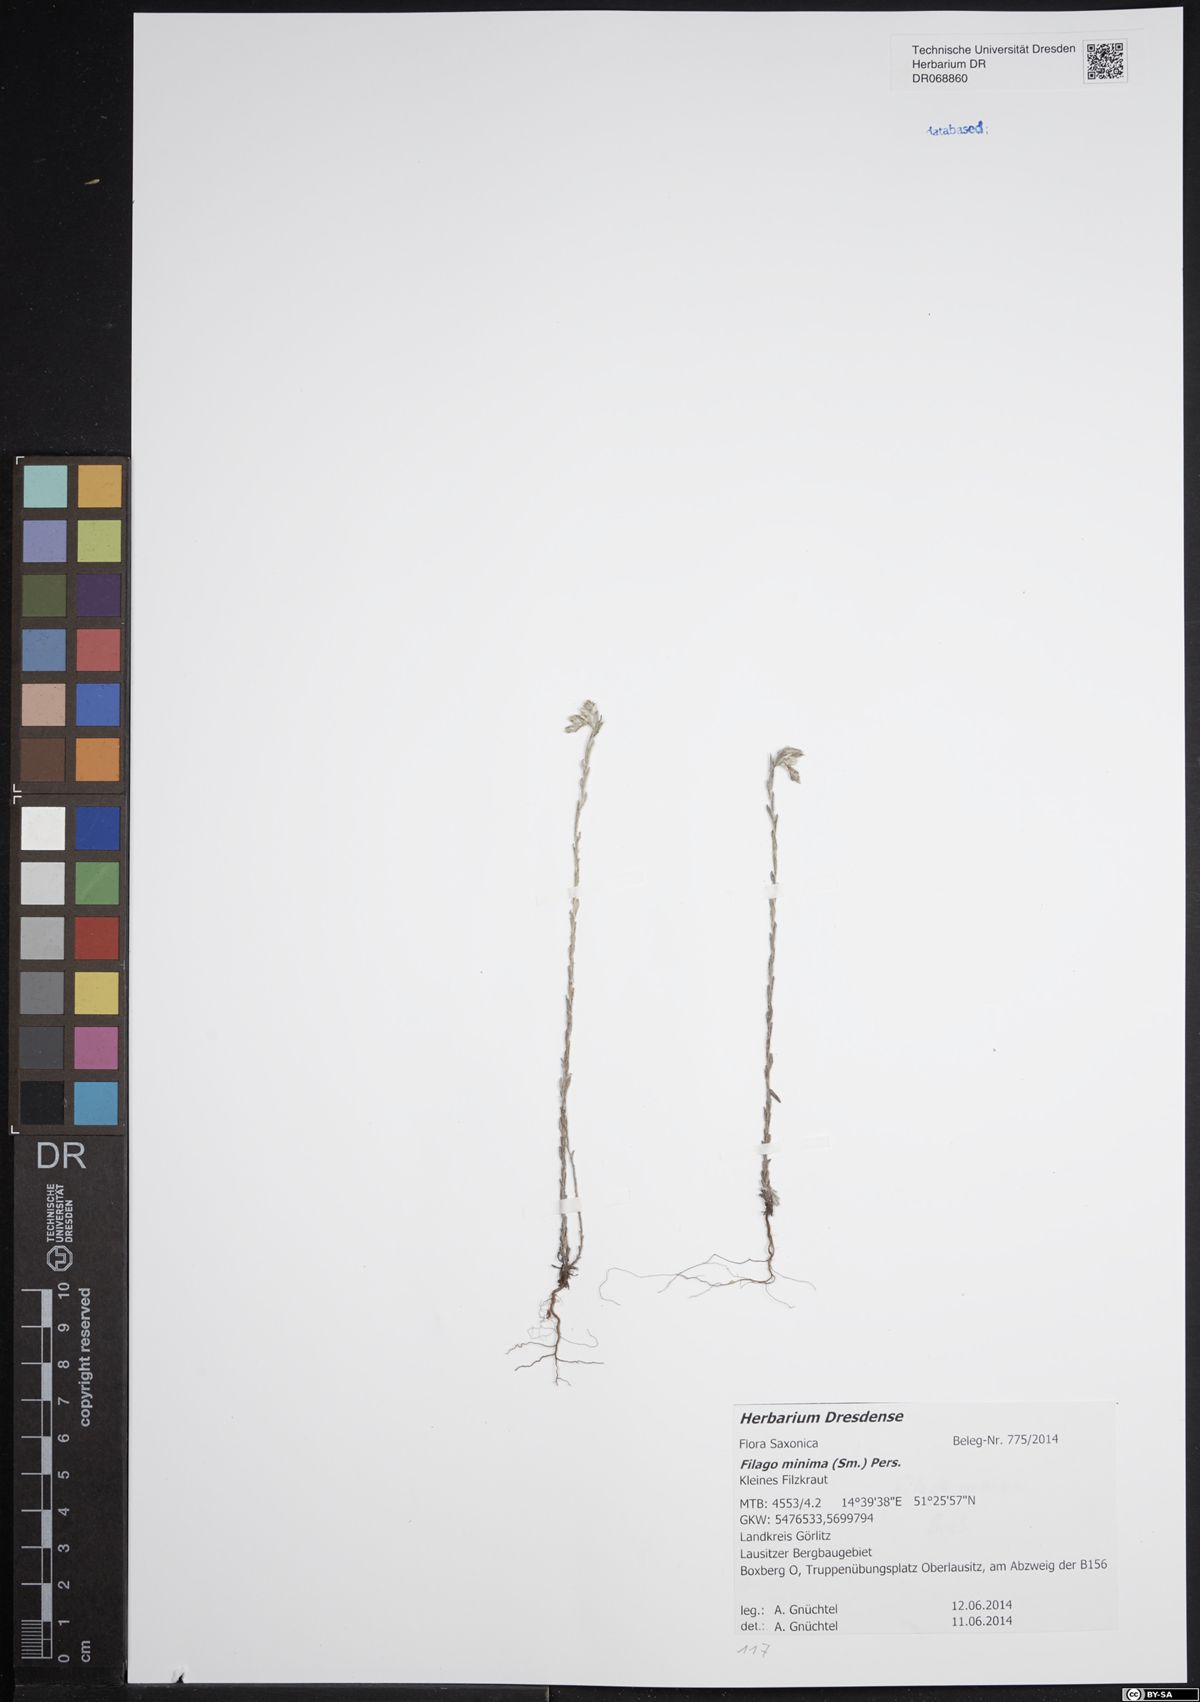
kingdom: Plantae
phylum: Tracheophyta
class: Magnoliopsida
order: Asterales
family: Asteraceae
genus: Logfia
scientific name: Logfia minima
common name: Little cottonrose
